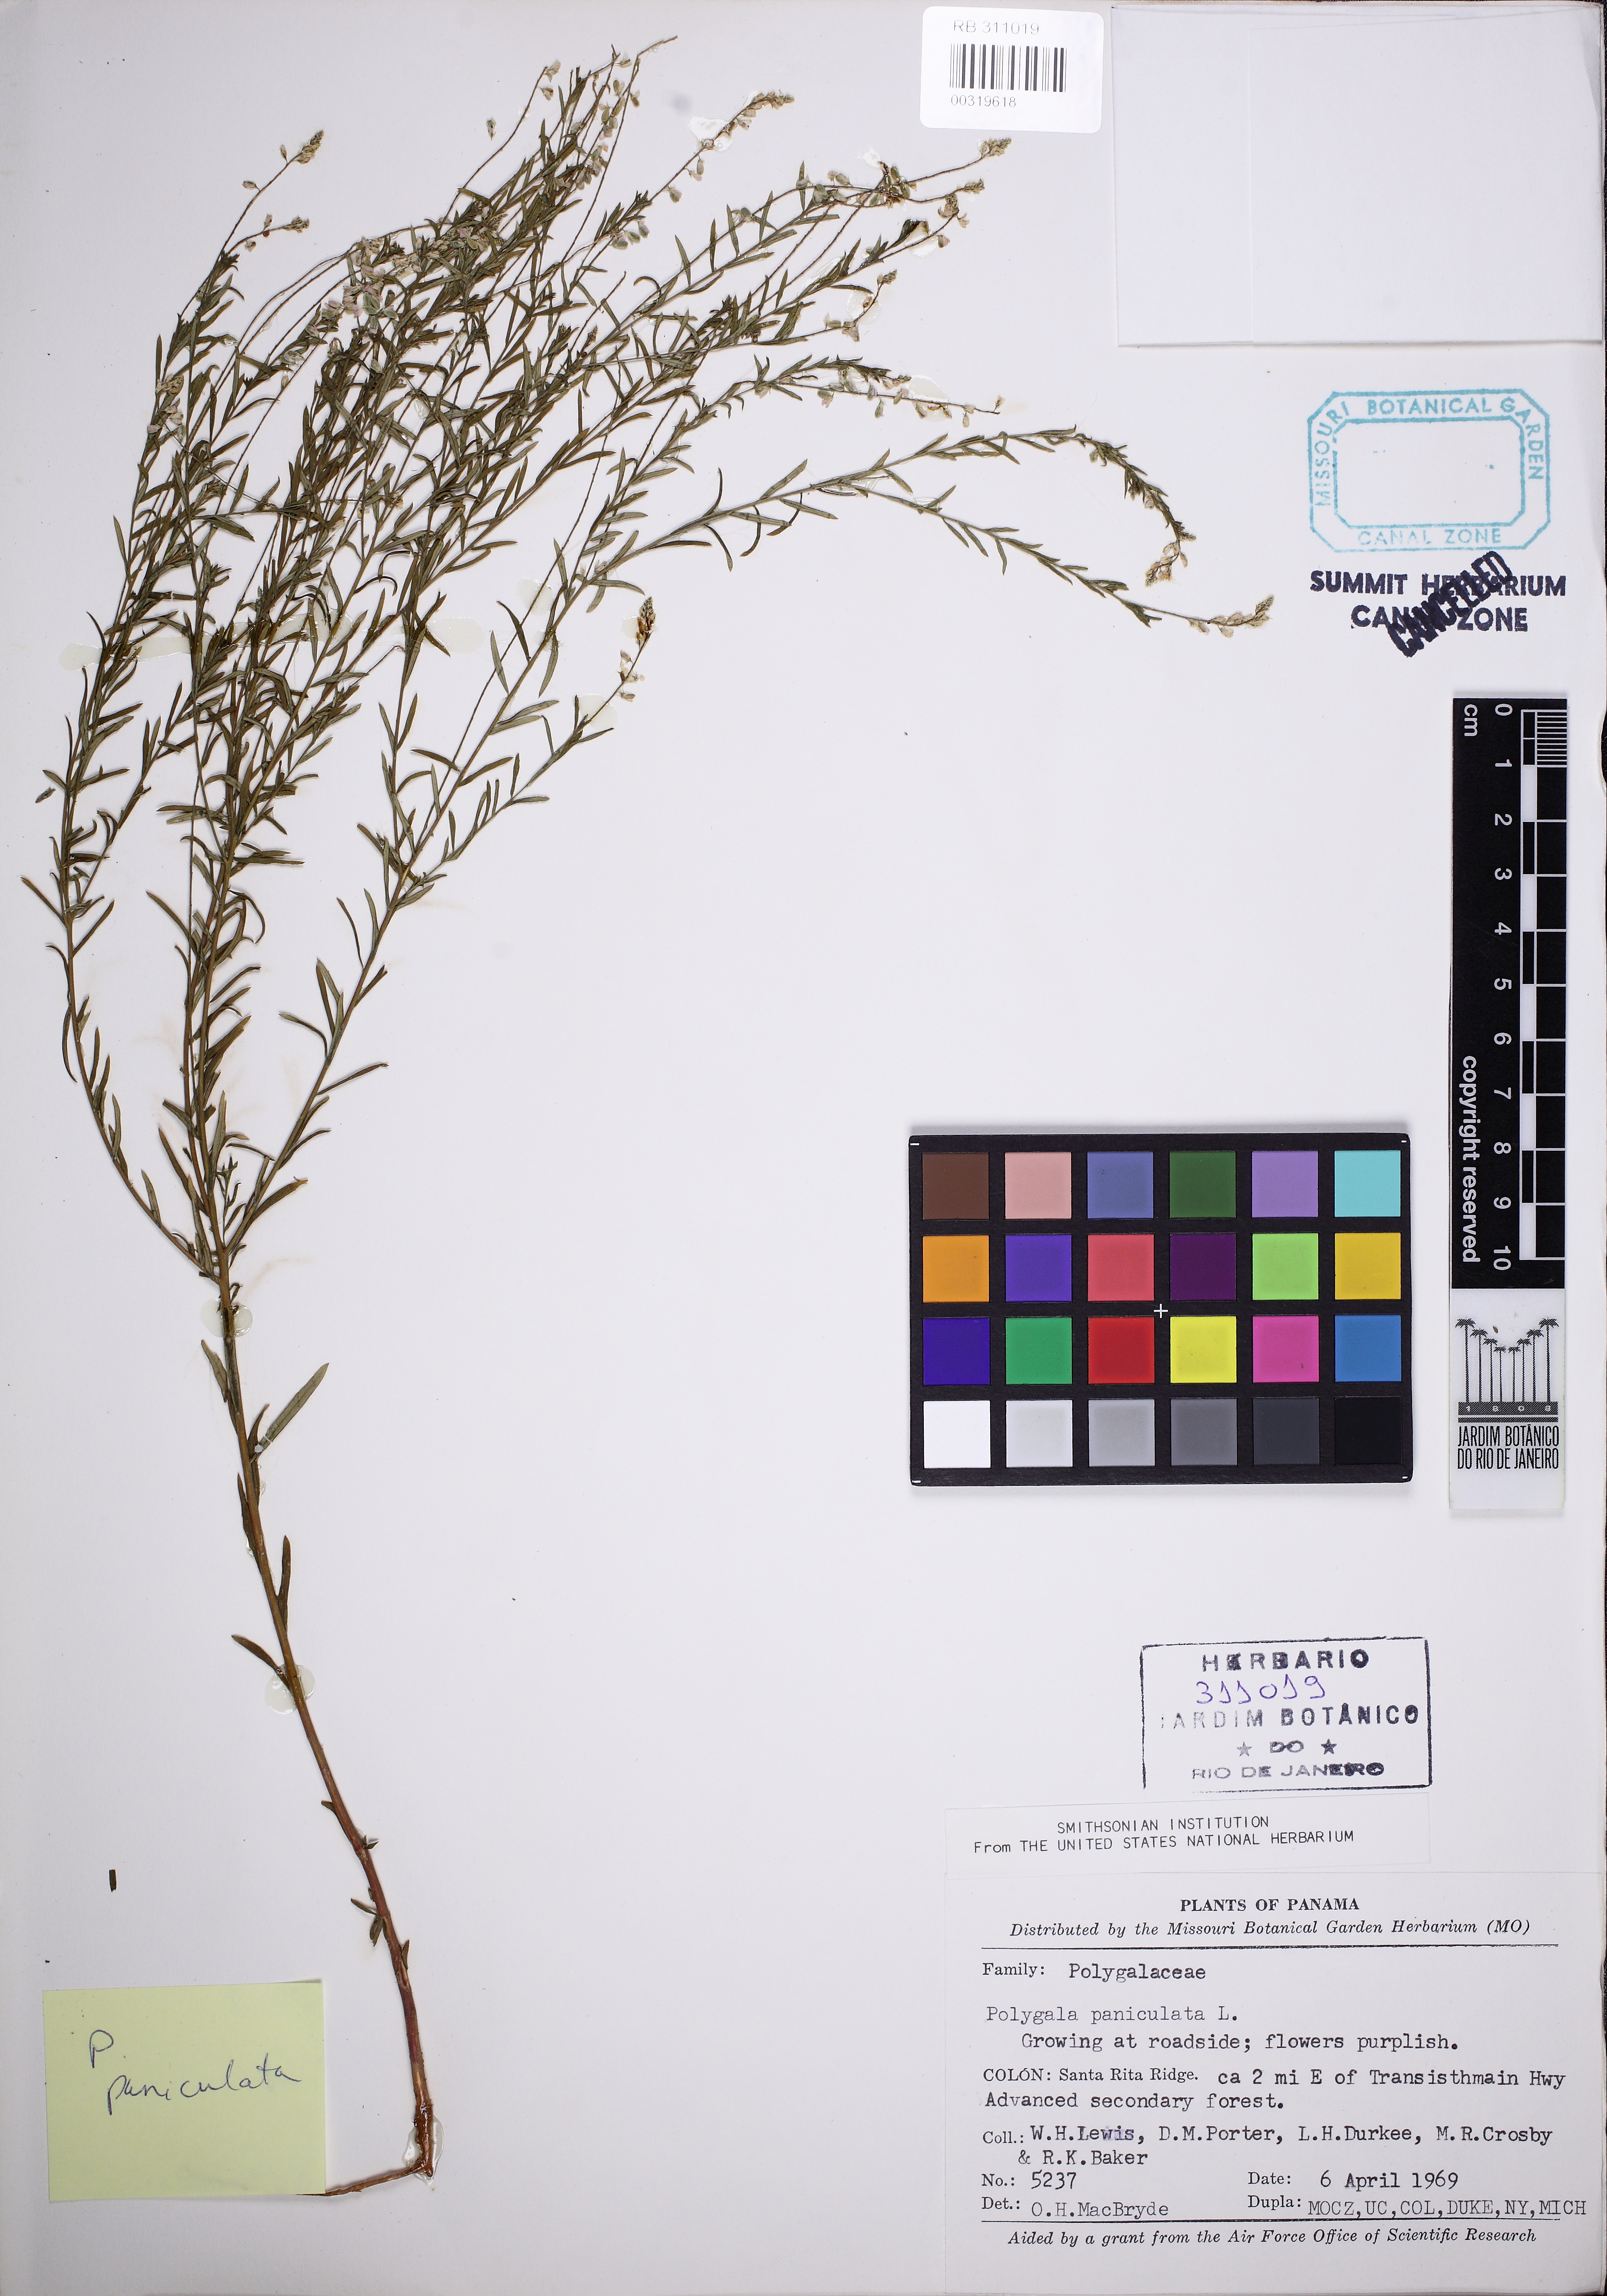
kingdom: Plantae
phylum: Tracheophyta
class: Magnoliopsida
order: Fabales
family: Polygalaceae
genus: Polygala
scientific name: Polygala paniculata
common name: Orosne
